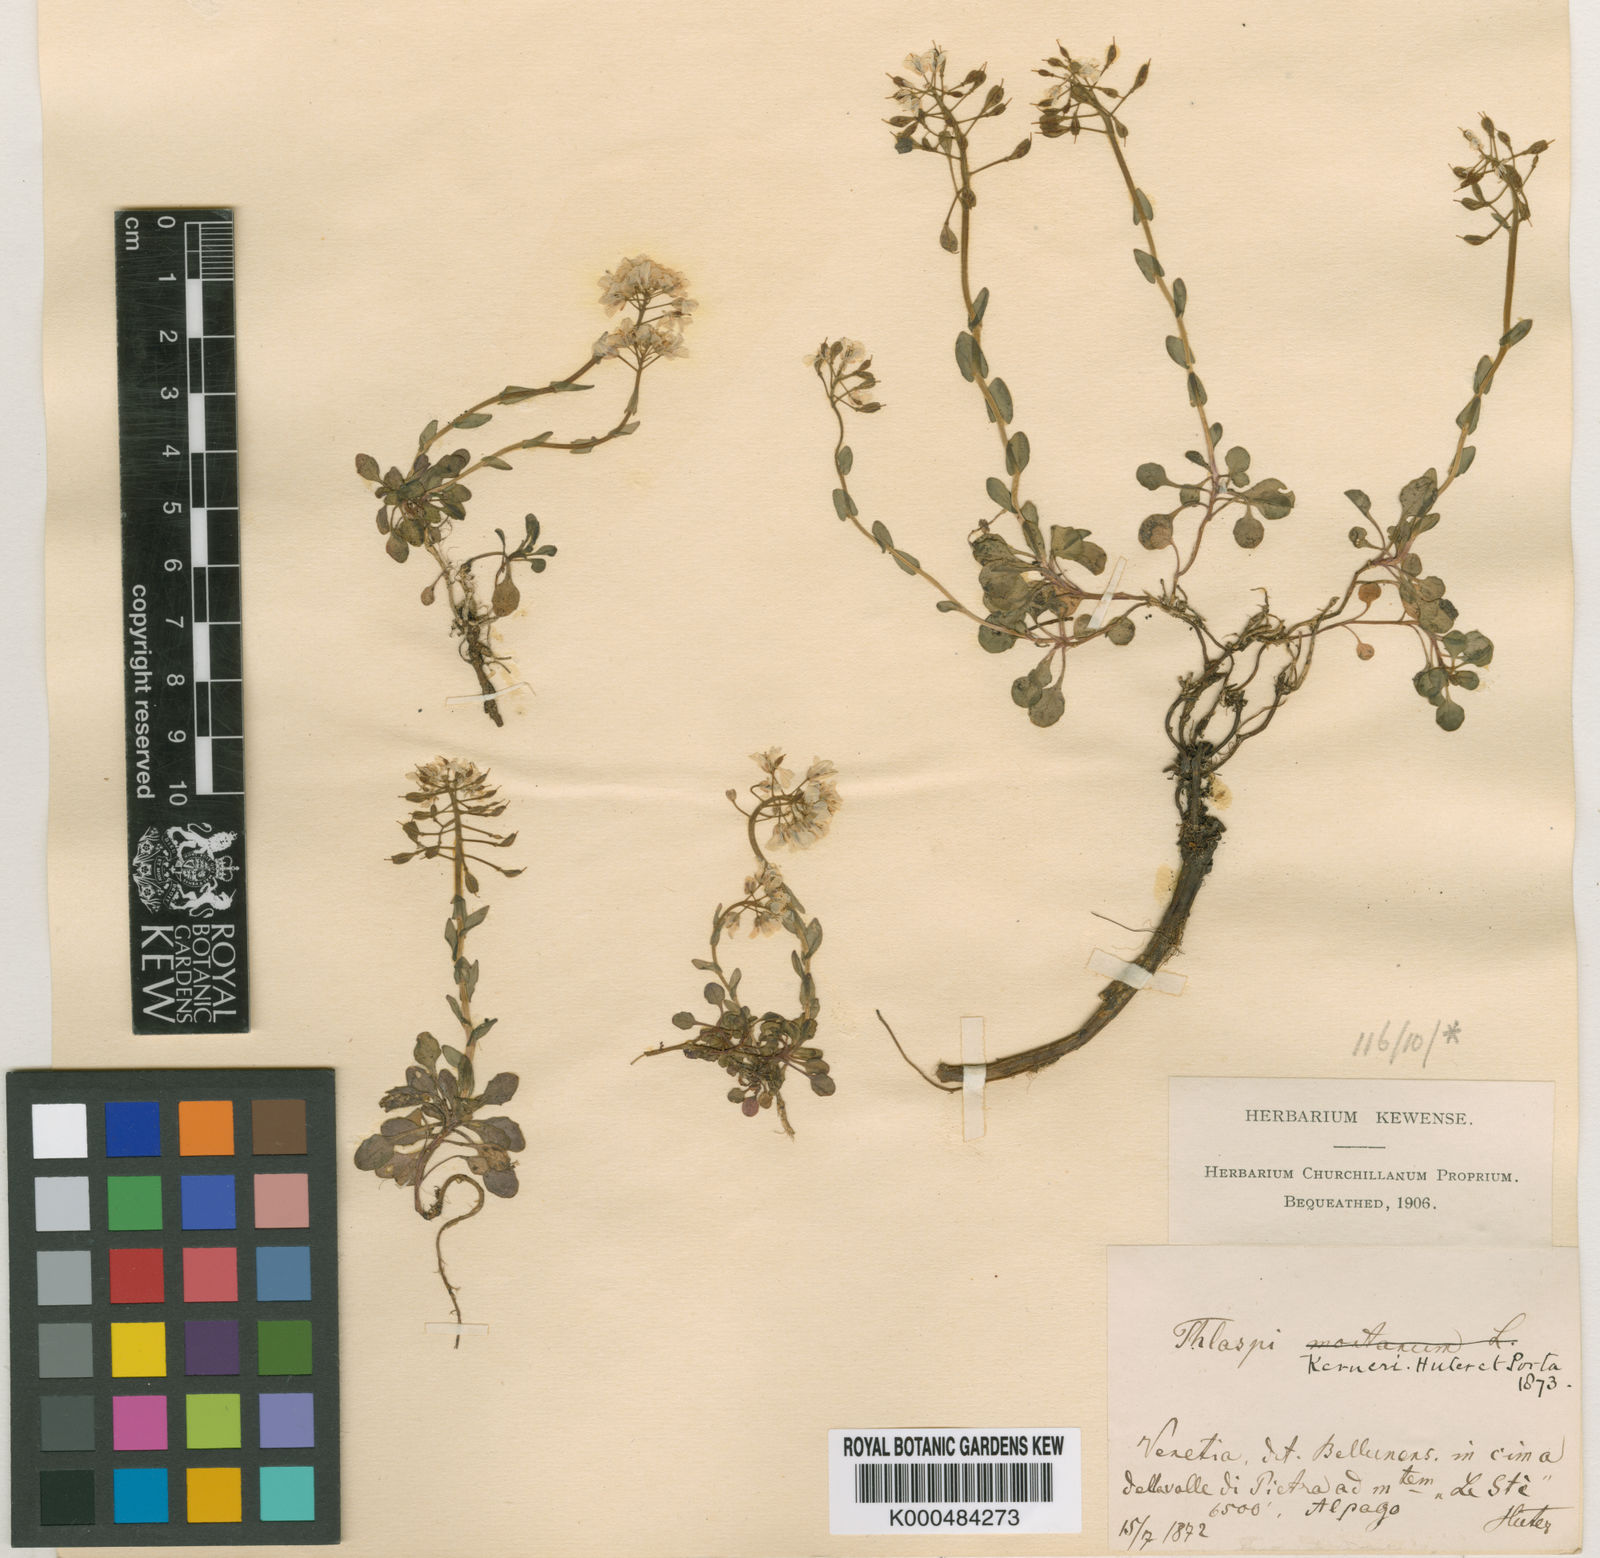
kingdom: Plantae
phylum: Tracheophyta
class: Magnoliopsida
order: Brassicales
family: Brassicaceae
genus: Noccaea
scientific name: Noccaea minima
